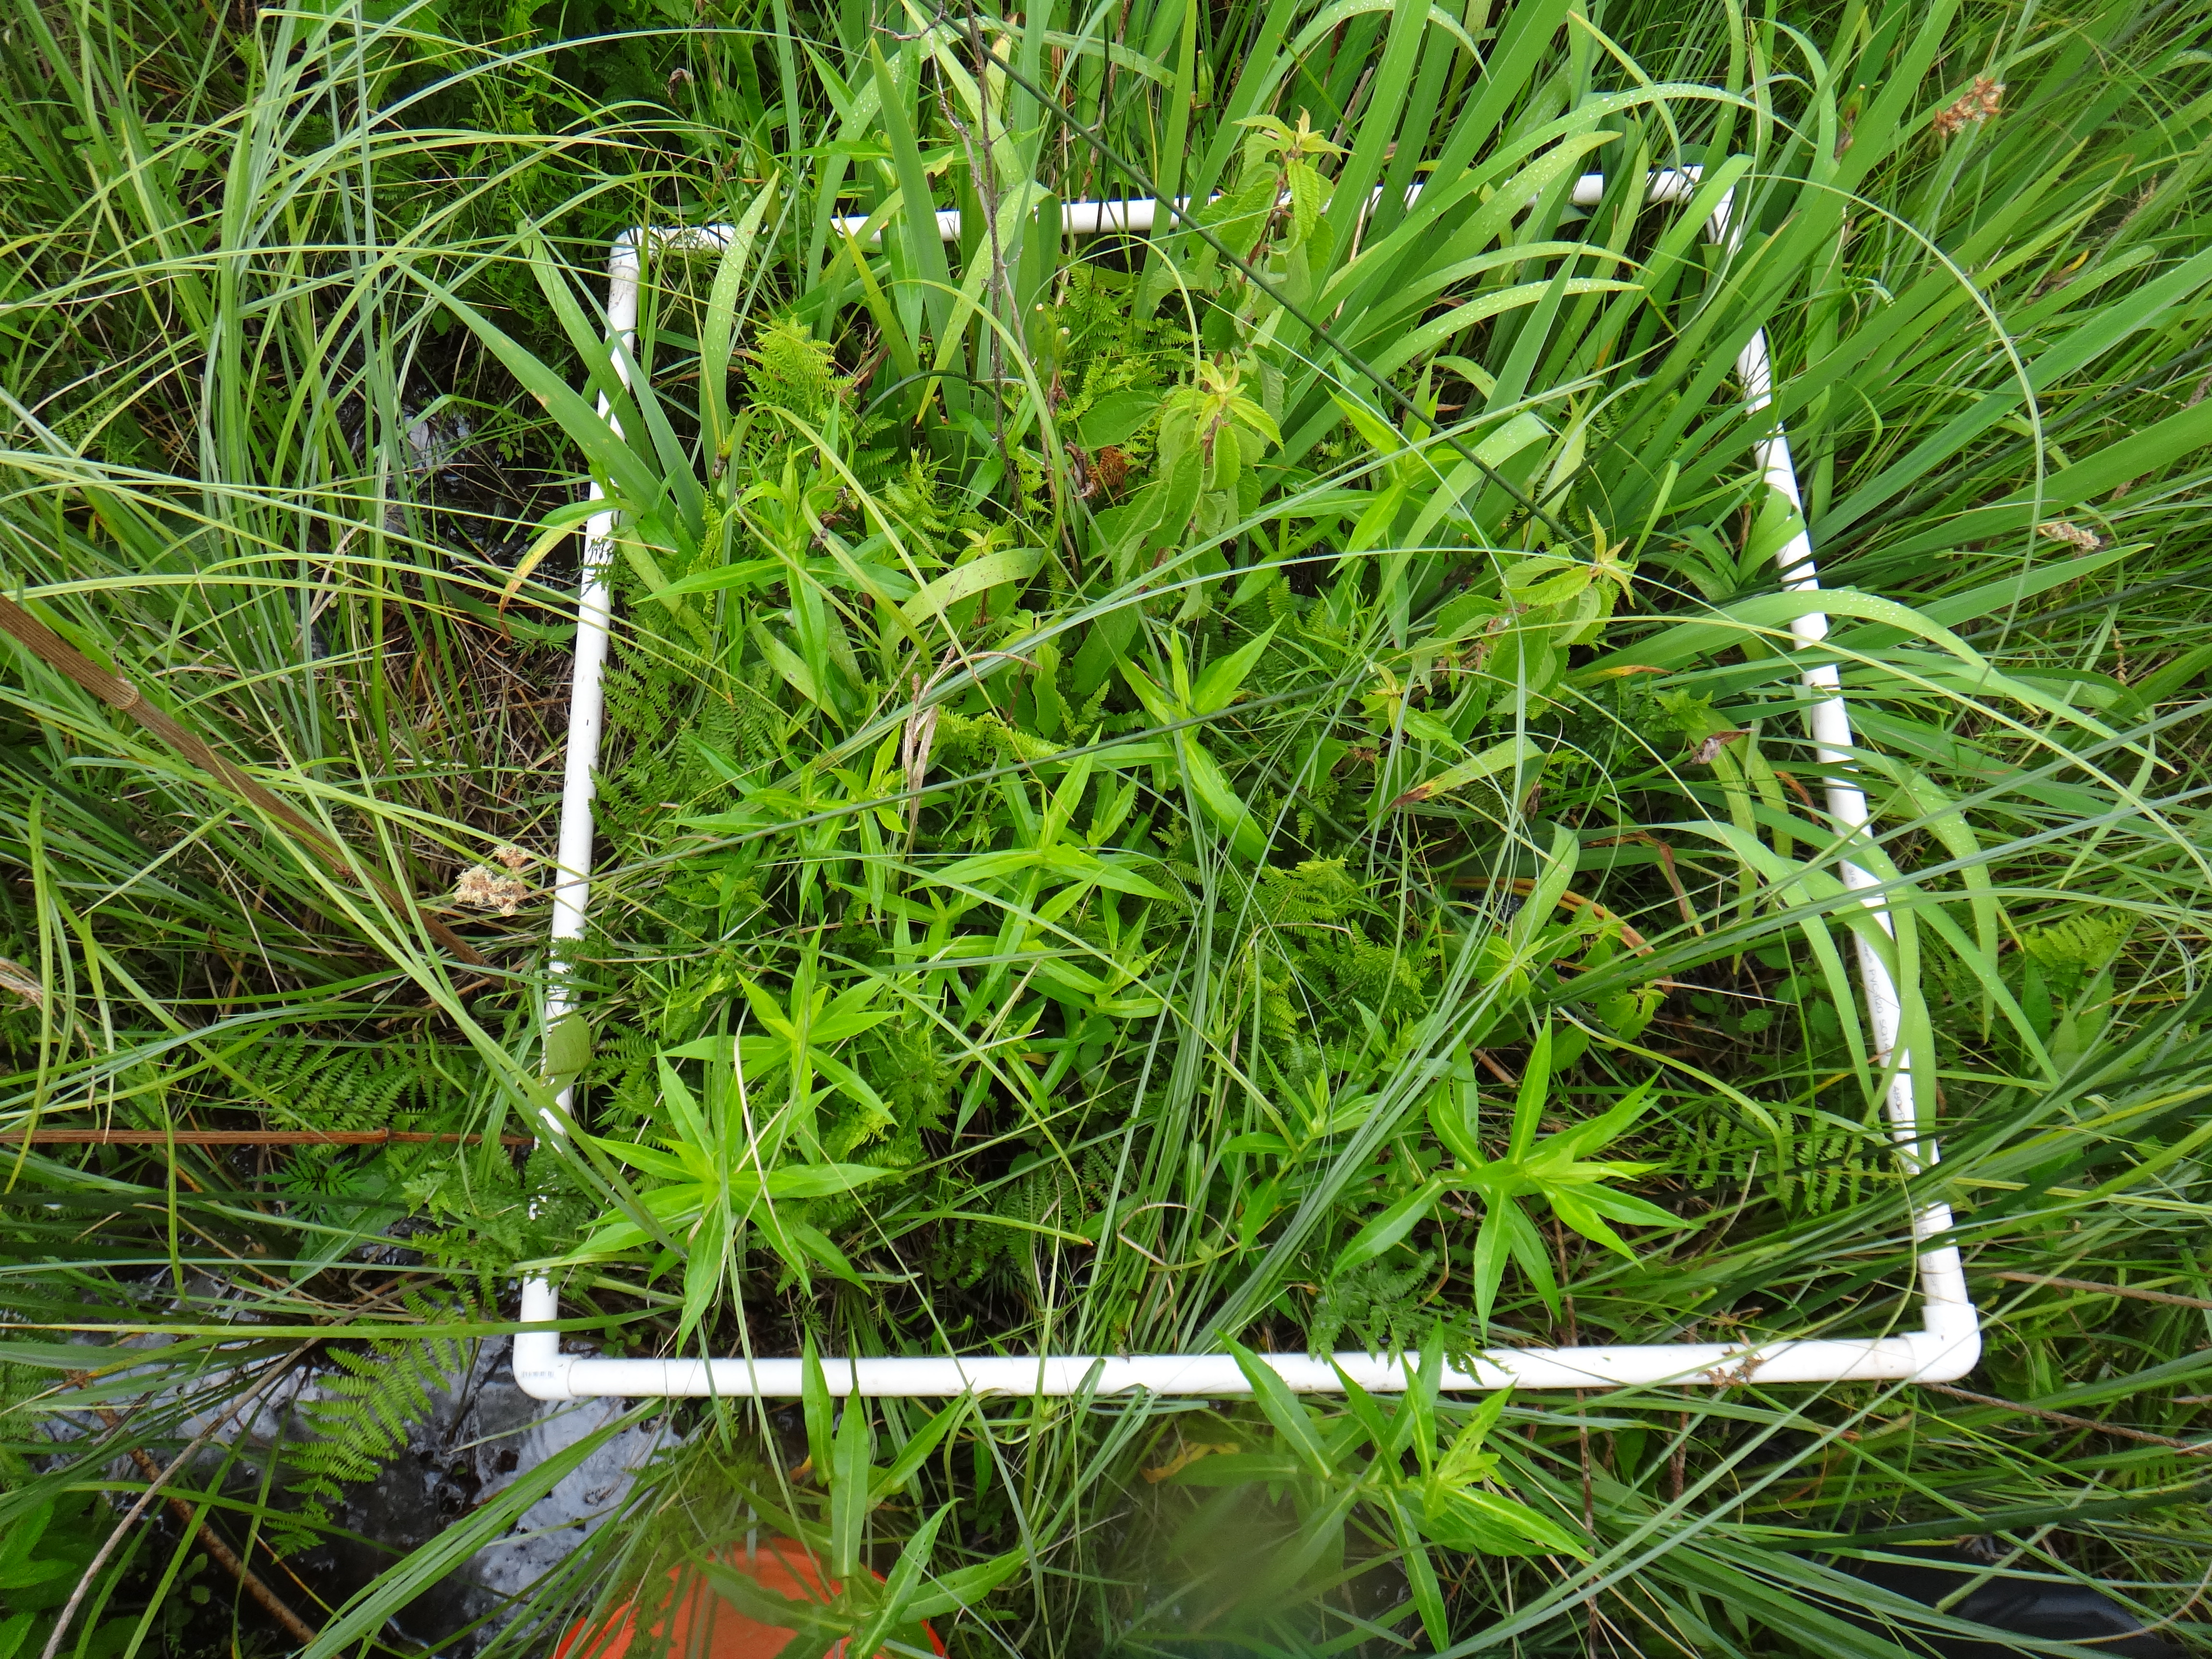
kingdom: Plantae
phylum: Tracheophyta
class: Liliopsida
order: Poales
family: Poaceae
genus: Agrostis
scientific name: Agrostis gigantea
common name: Black bent
